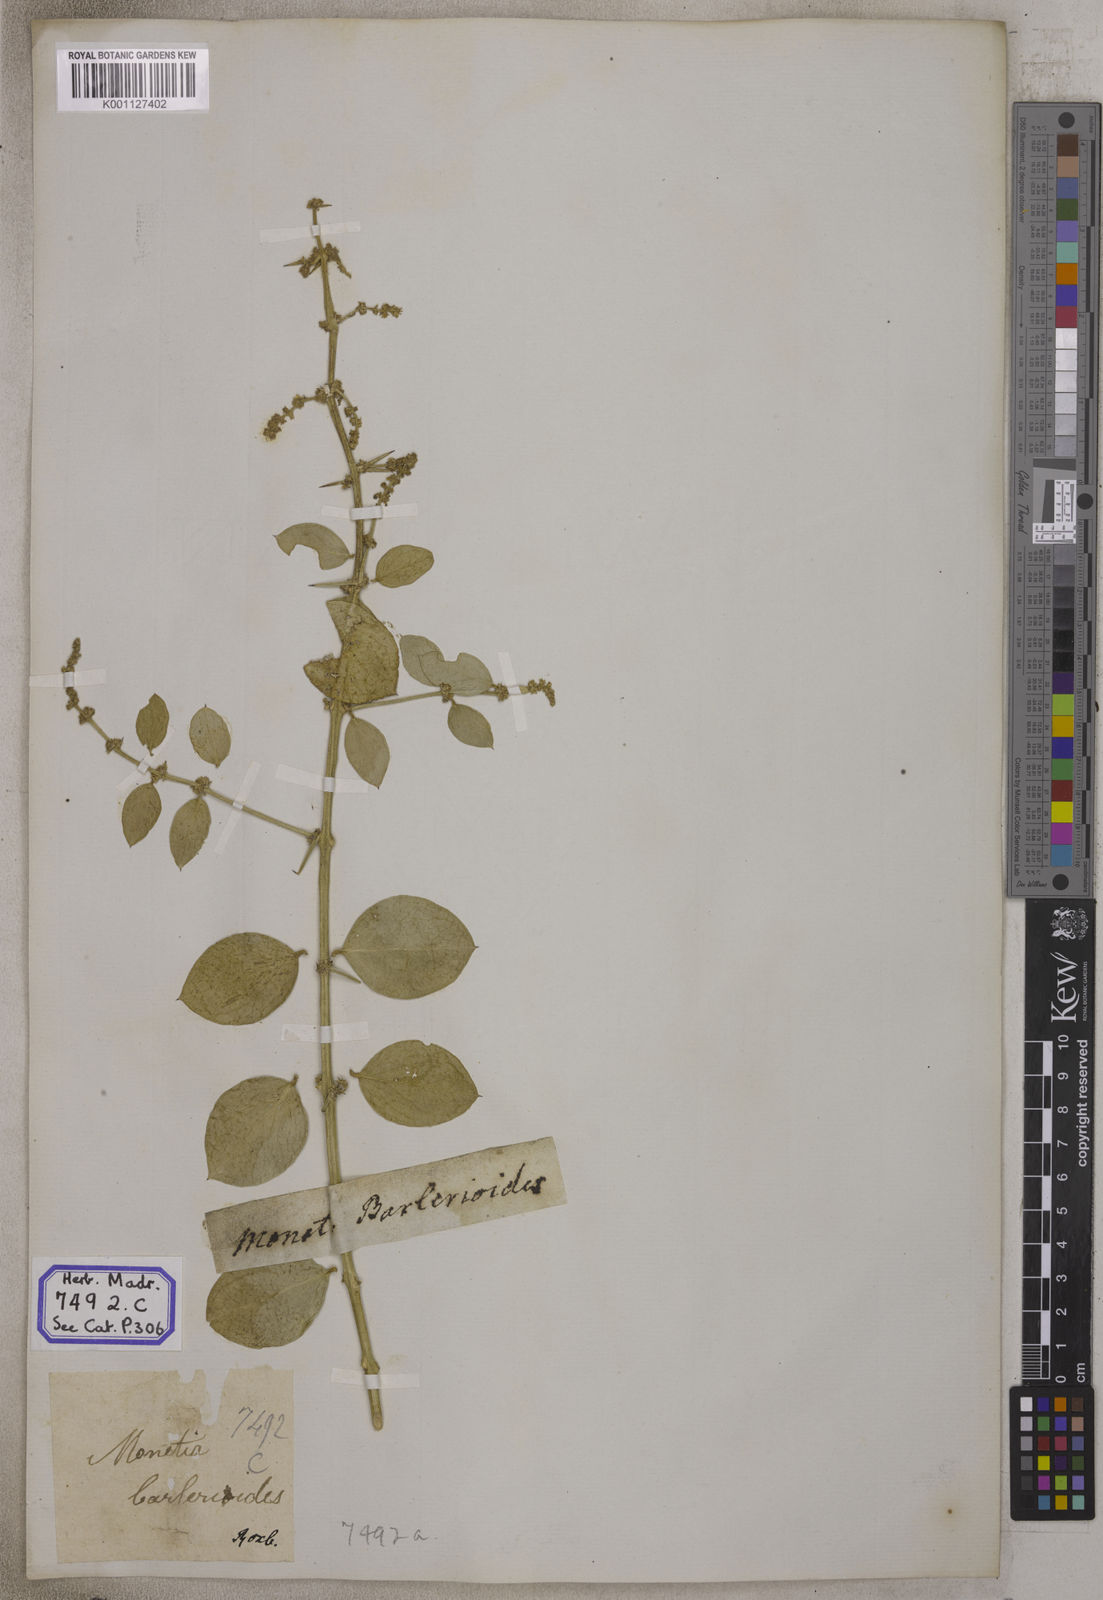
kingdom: Plantae
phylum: Tracheophyta
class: Magnoliopsida
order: Brassicales
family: Salvadoraceae
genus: Azima
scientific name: Azima
